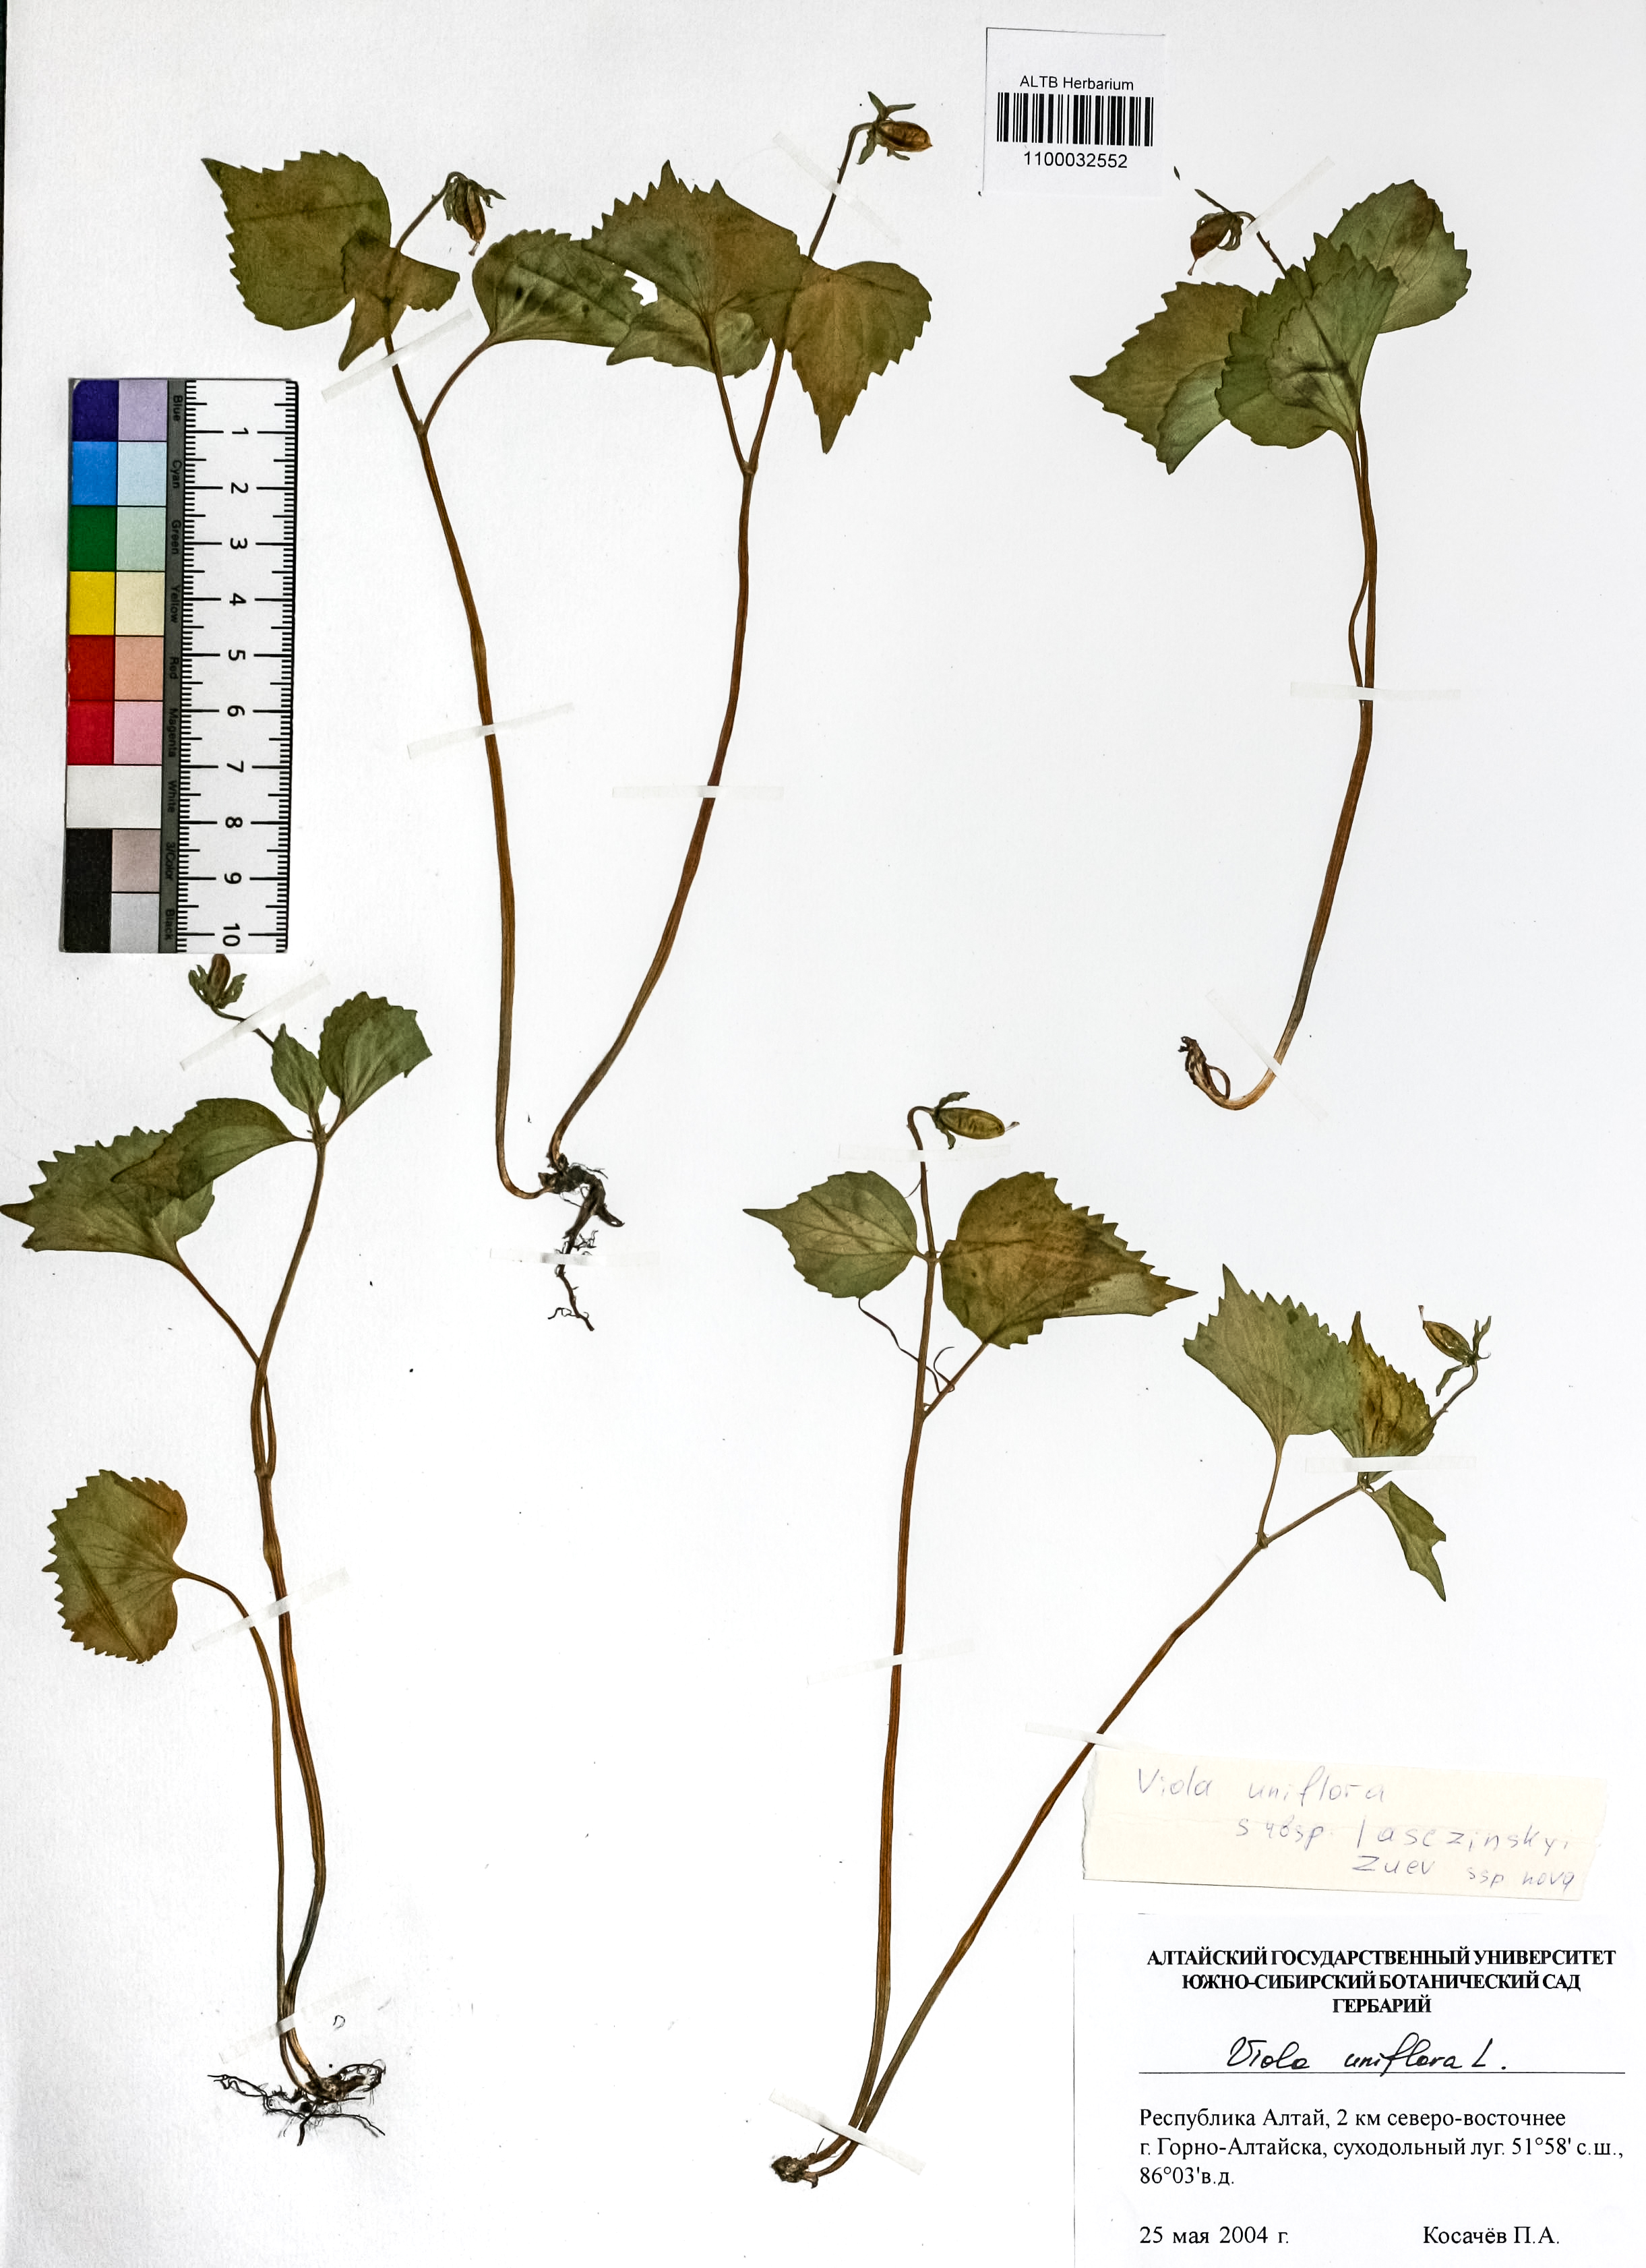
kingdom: Plantae
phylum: Tracheophyta
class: Magnoliopsida
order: Malpighiales
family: Violaceae
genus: Viola
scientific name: Viola uniflora
